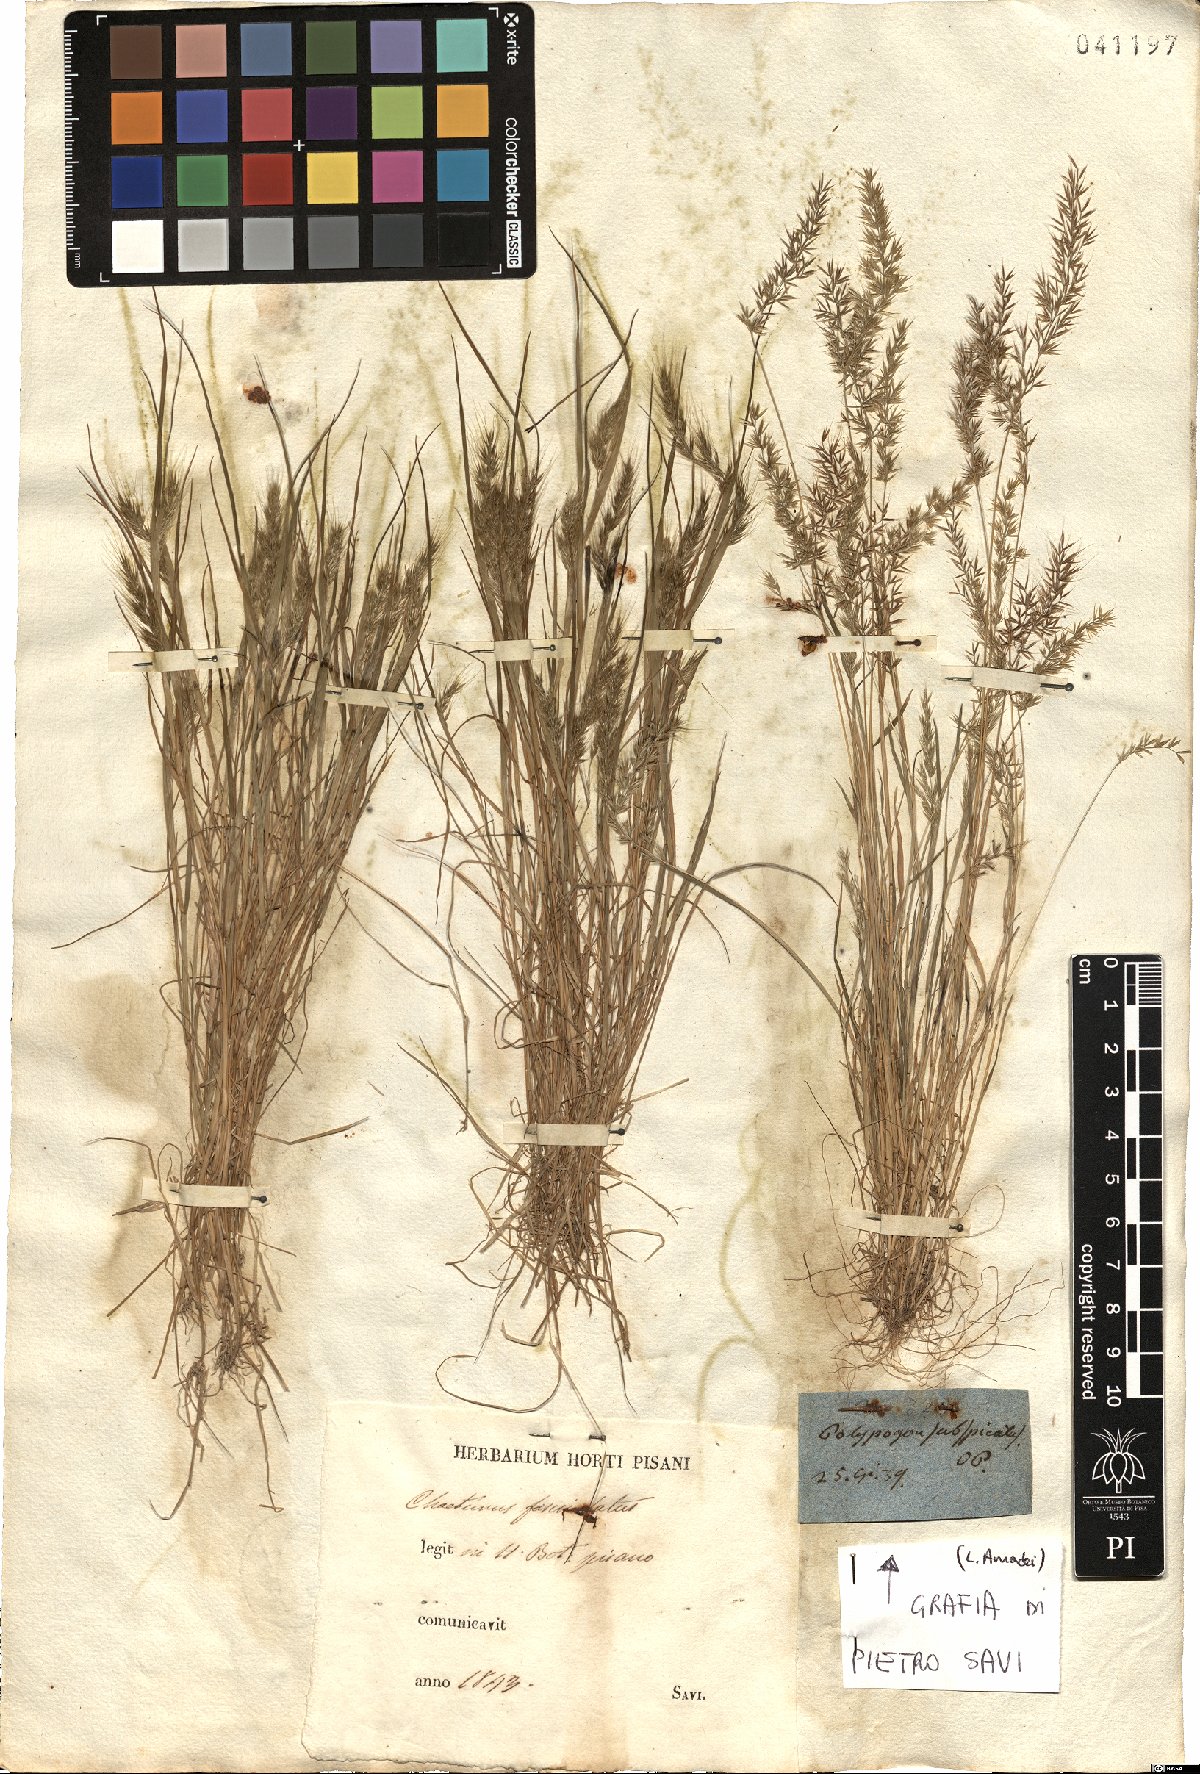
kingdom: Plantae
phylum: Tracheophyta
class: Liliopsida
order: Poales
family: Poaceae
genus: Agrostis
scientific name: Agrostis subspicata
